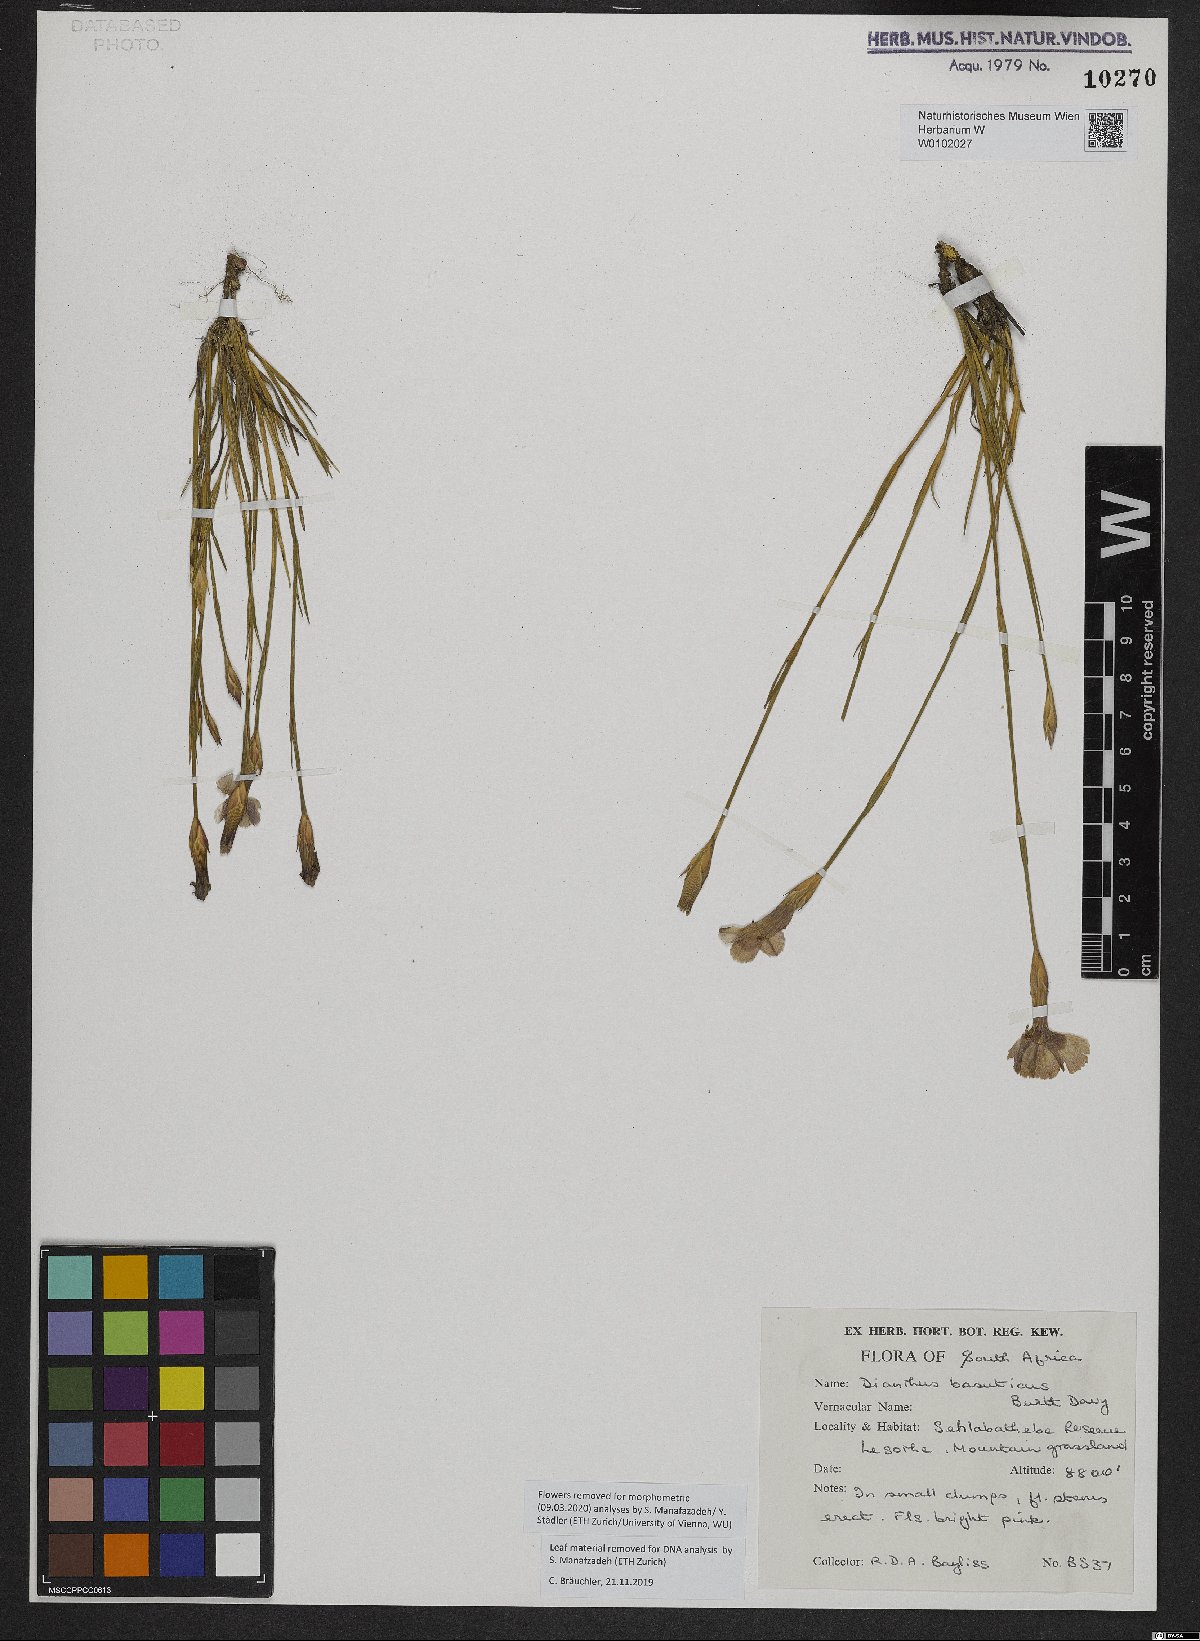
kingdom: Plantae
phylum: Tracheophyta
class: Magnoliopsida
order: Caryophyllales
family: Caryophyllaceae
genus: Dianthus
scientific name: Dianthus basuticus
